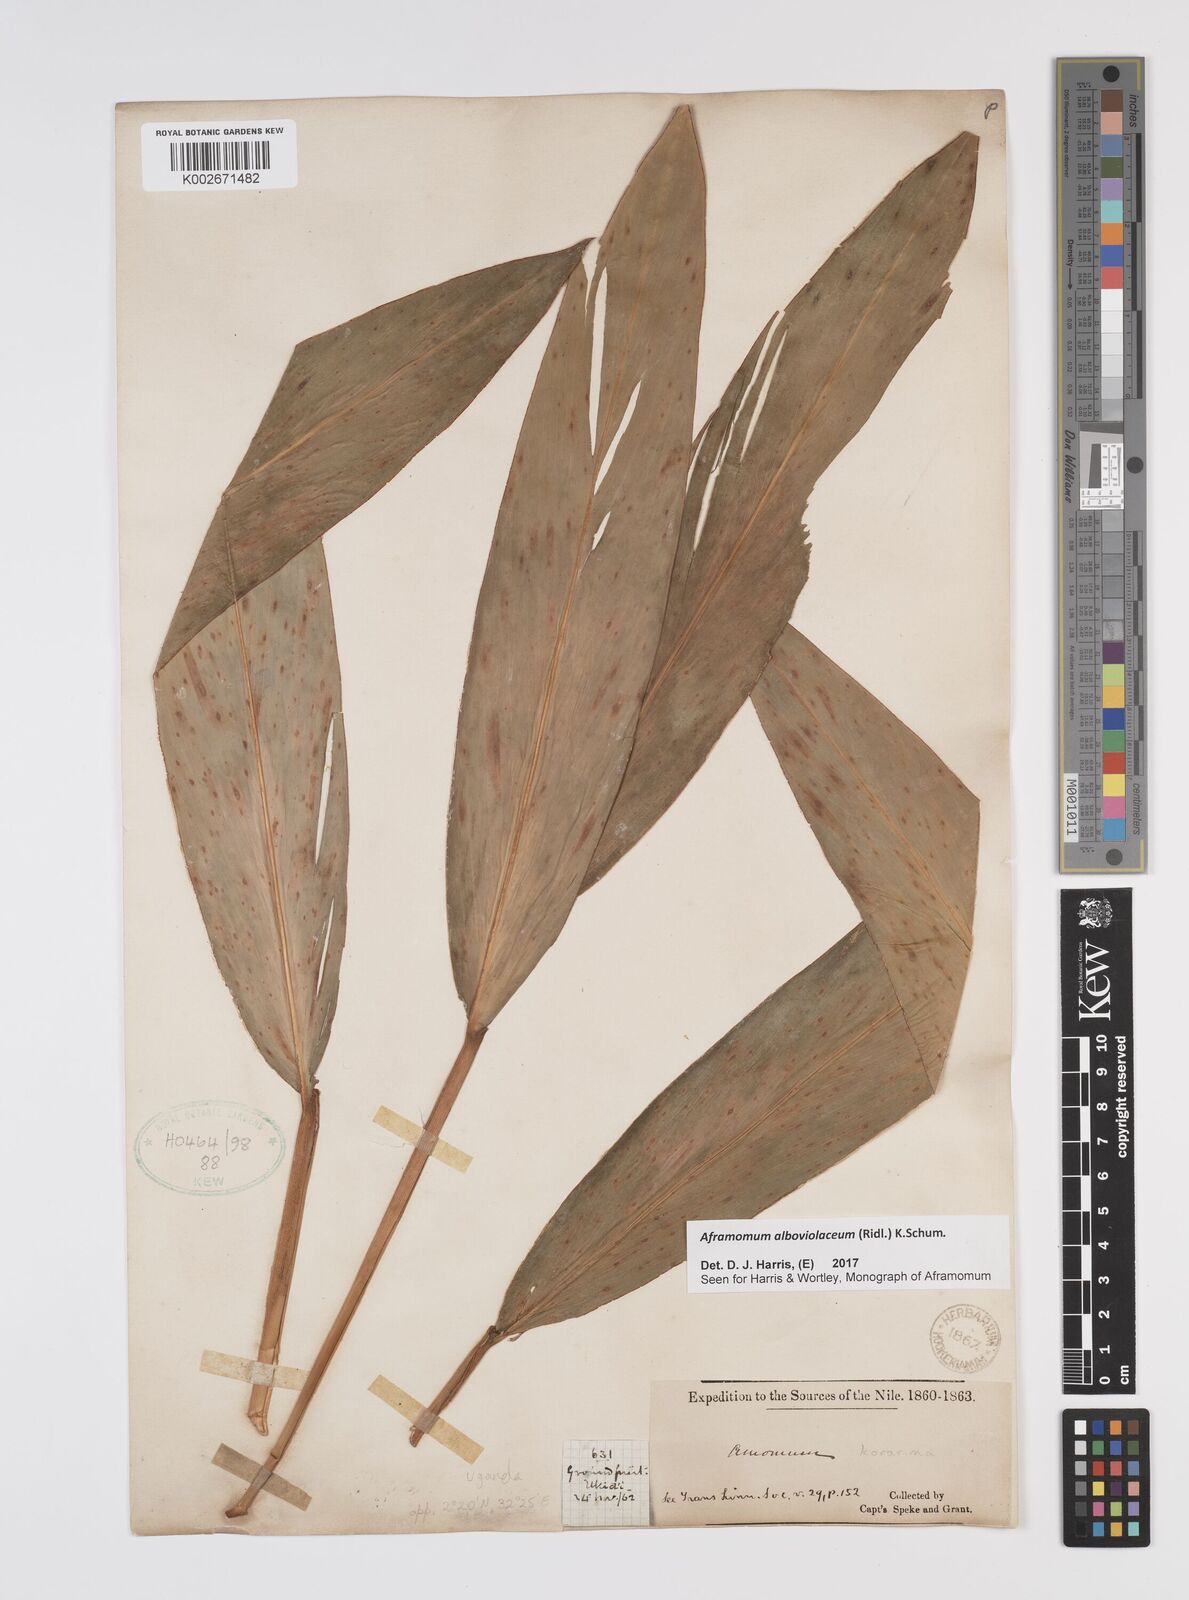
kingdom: Plantae
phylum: Tracheophyta
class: Liliopsida
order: Zingiberales
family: Zingiberaceae
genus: Aframomum
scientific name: Aframomum alboviolaceum
